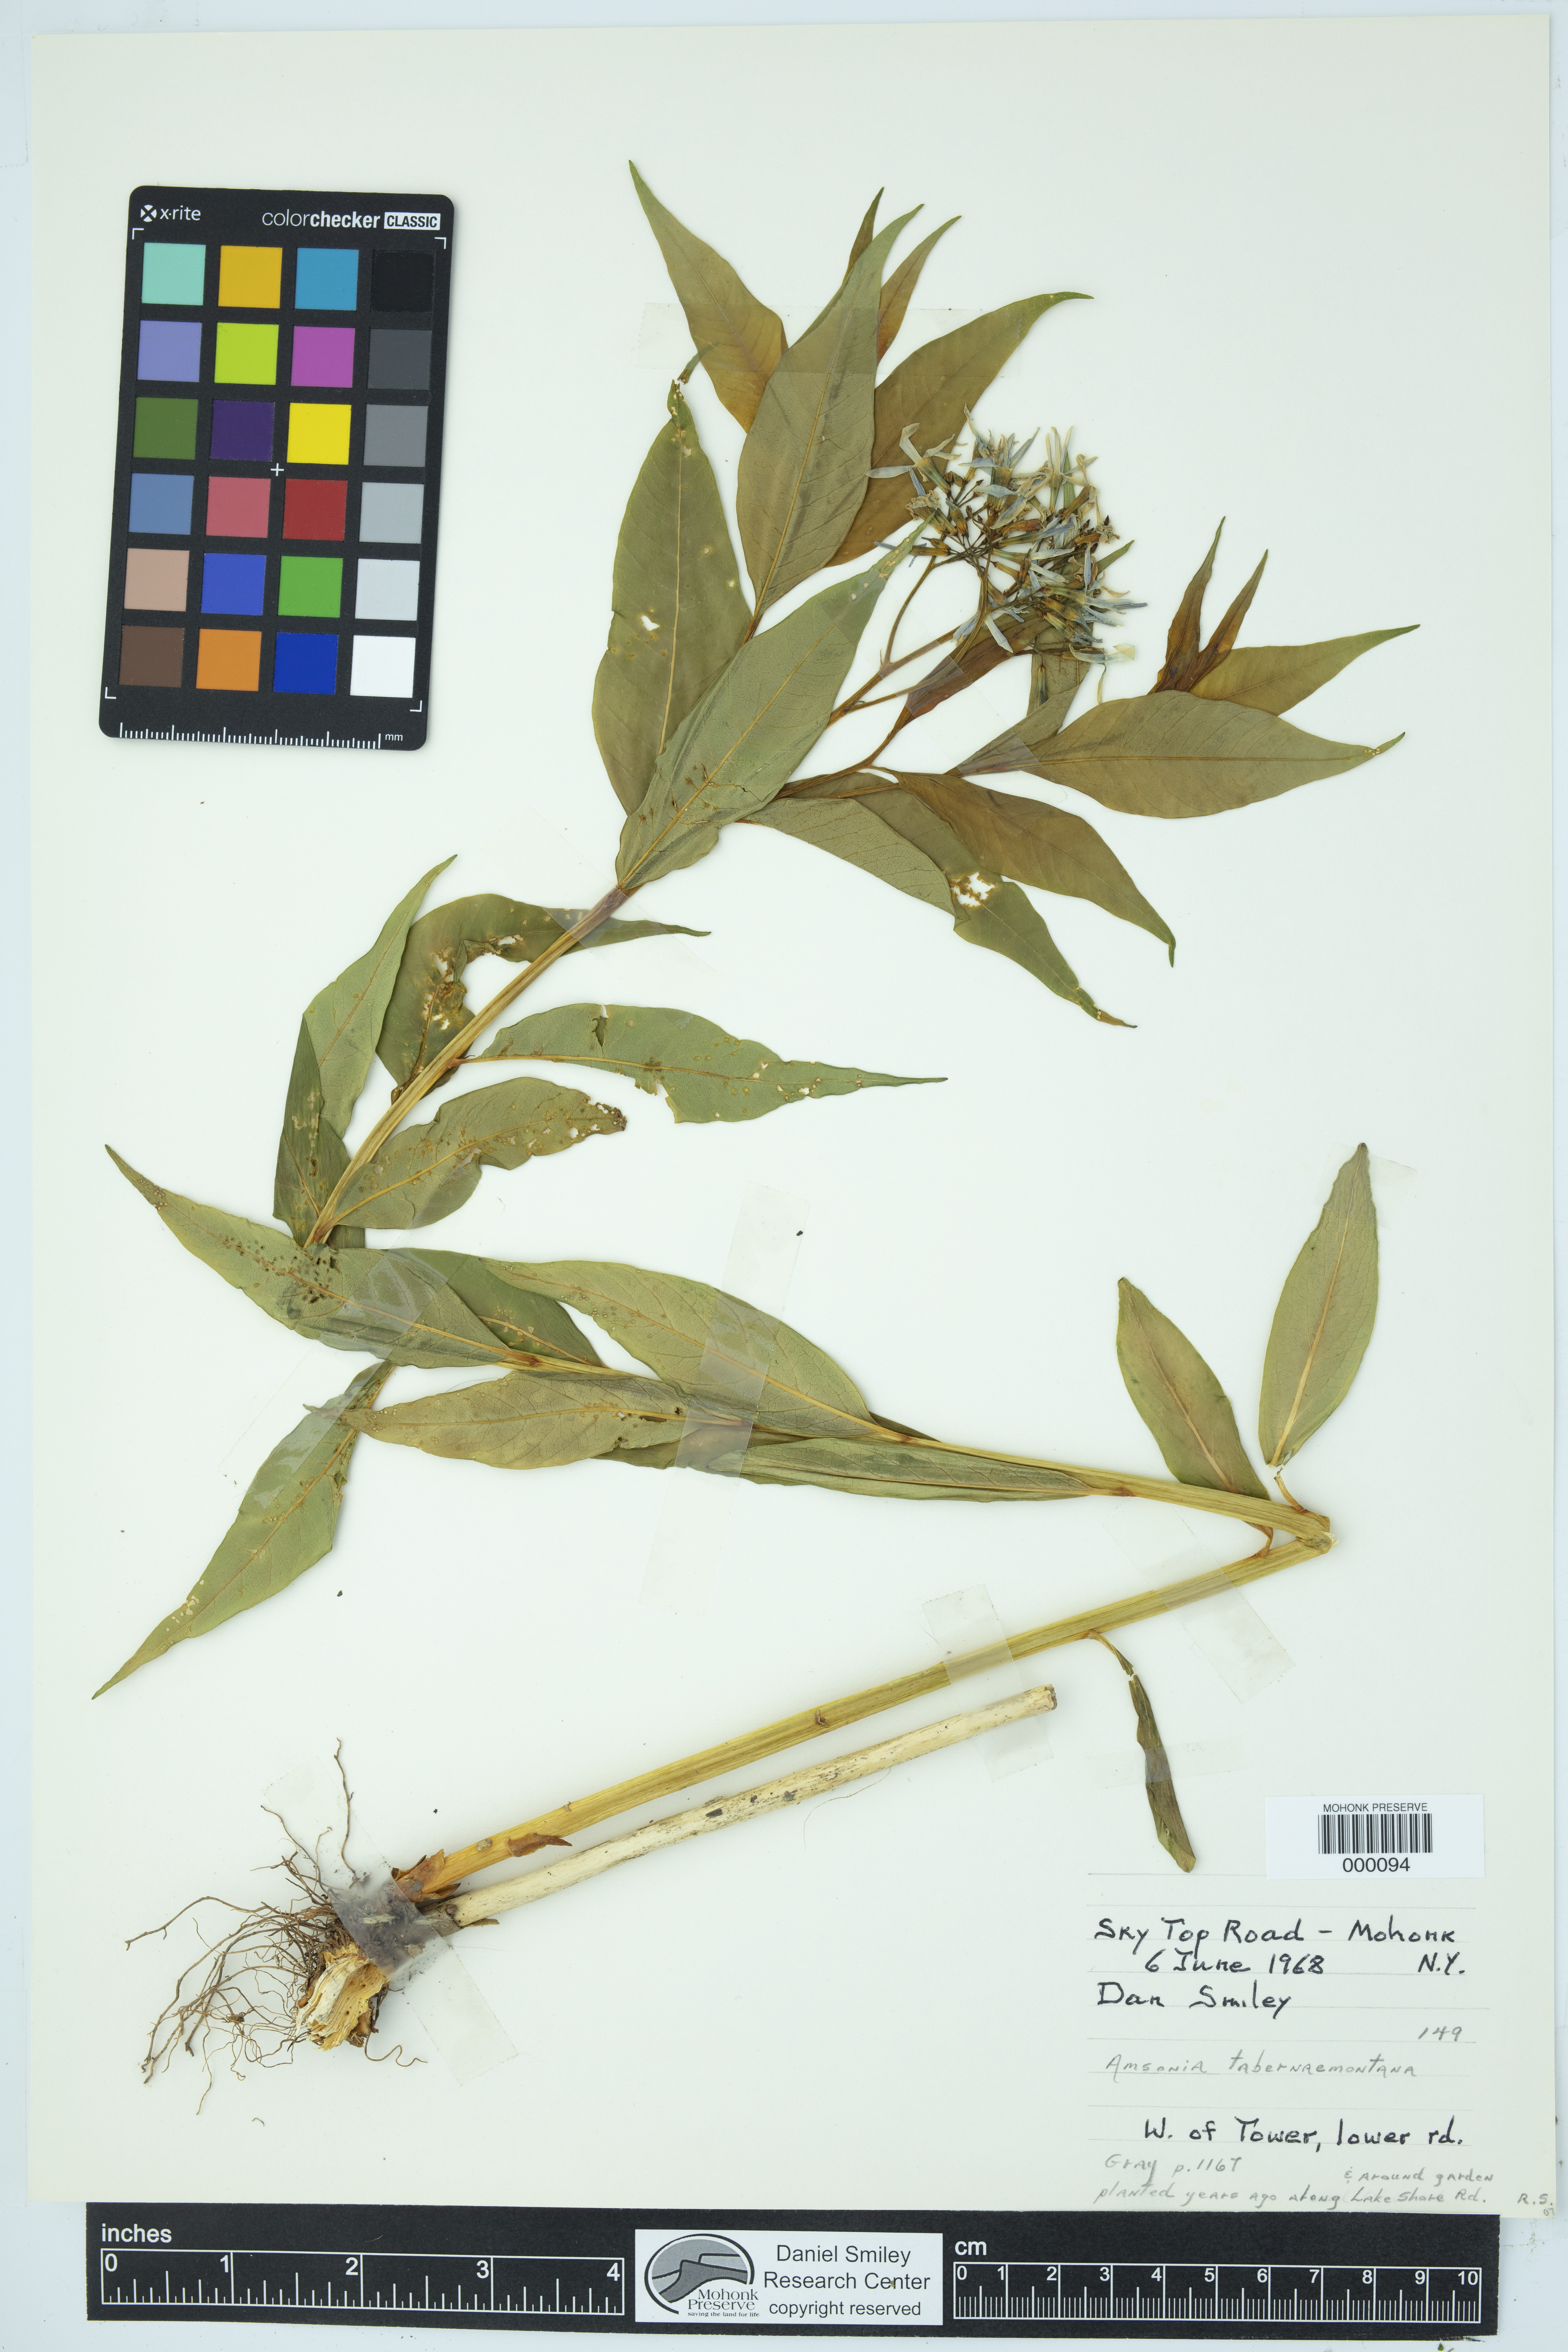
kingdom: Plantae
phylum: Tracheophyta
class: Magnoliopsida
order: Gentianales
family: Apocynaceae
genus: Amsonia
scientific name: Amsonia tabernaemontana
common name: Texas-star
